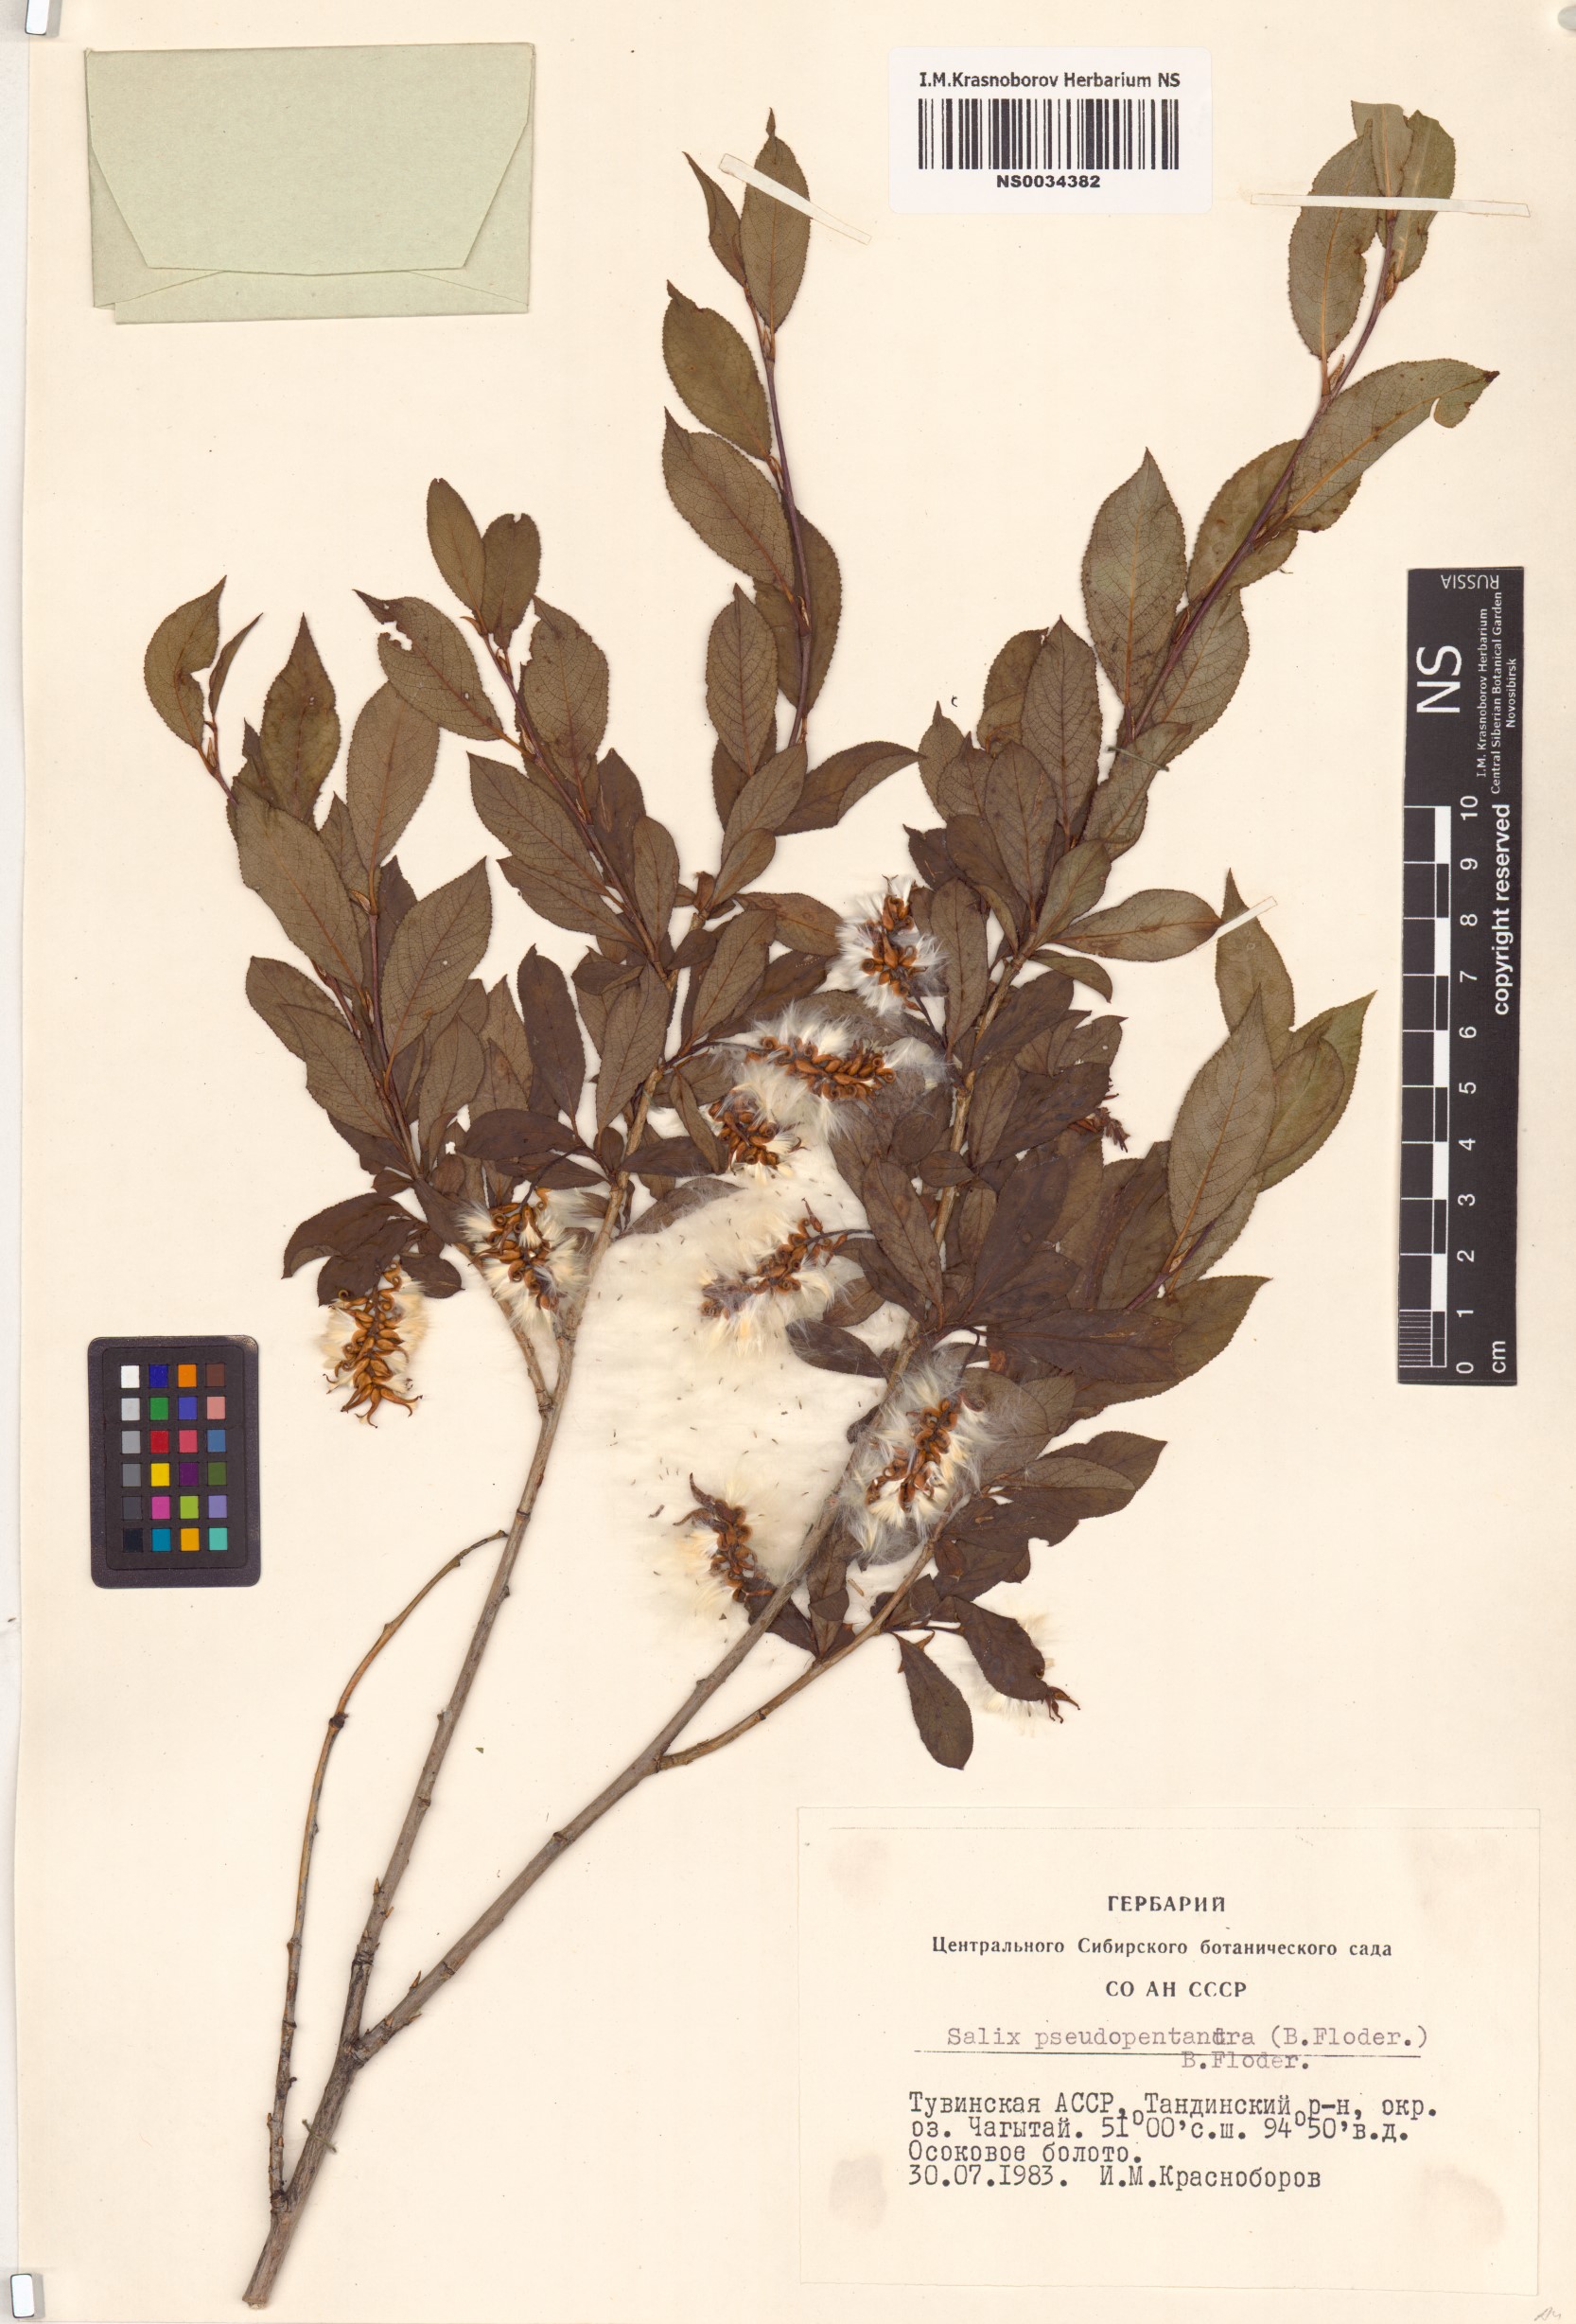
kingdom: Plantae
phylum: Tracheophyta
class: Magnoliopsida
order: Malpighiales
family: Salicaceae
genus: Salix
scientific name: Salix pseudopentandra
